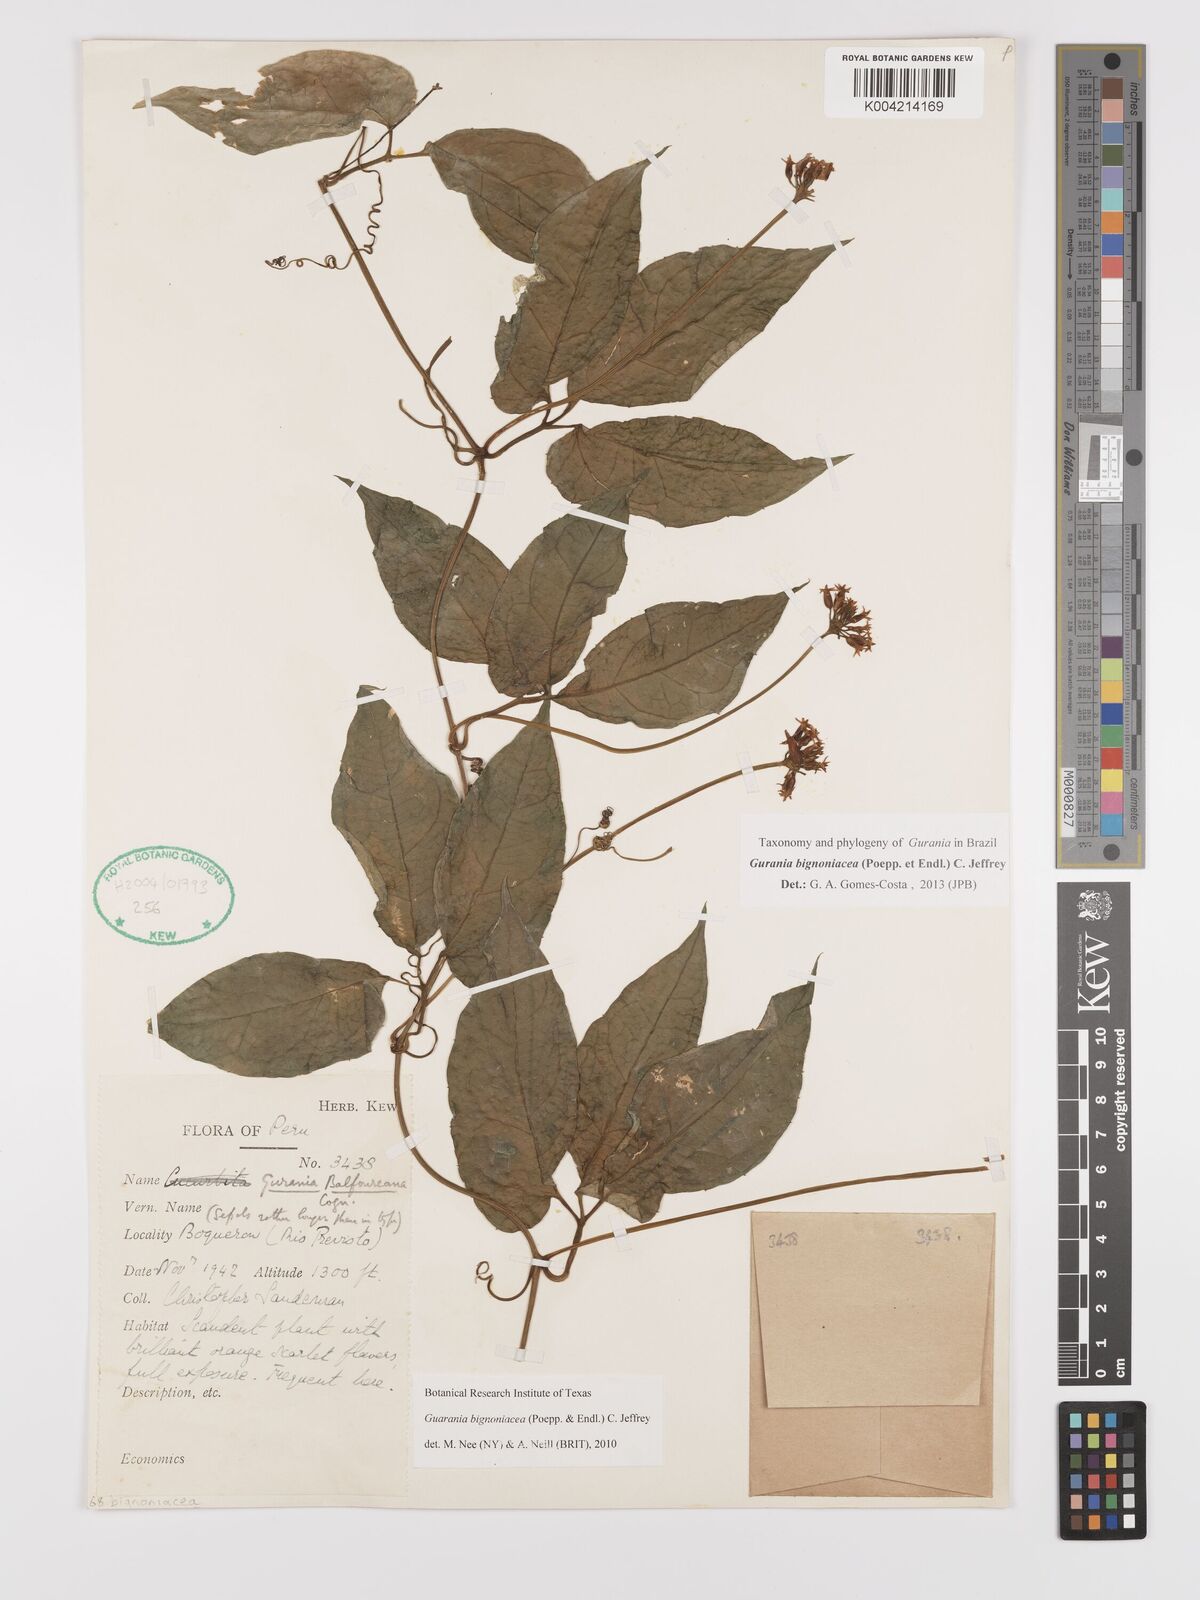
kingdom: Plantae
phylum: Tracheophyta
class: Magnoliopsida
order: Cucurbitales
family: Cucurbitaceae
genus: Gurania
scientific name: Gurania bignoniacea
